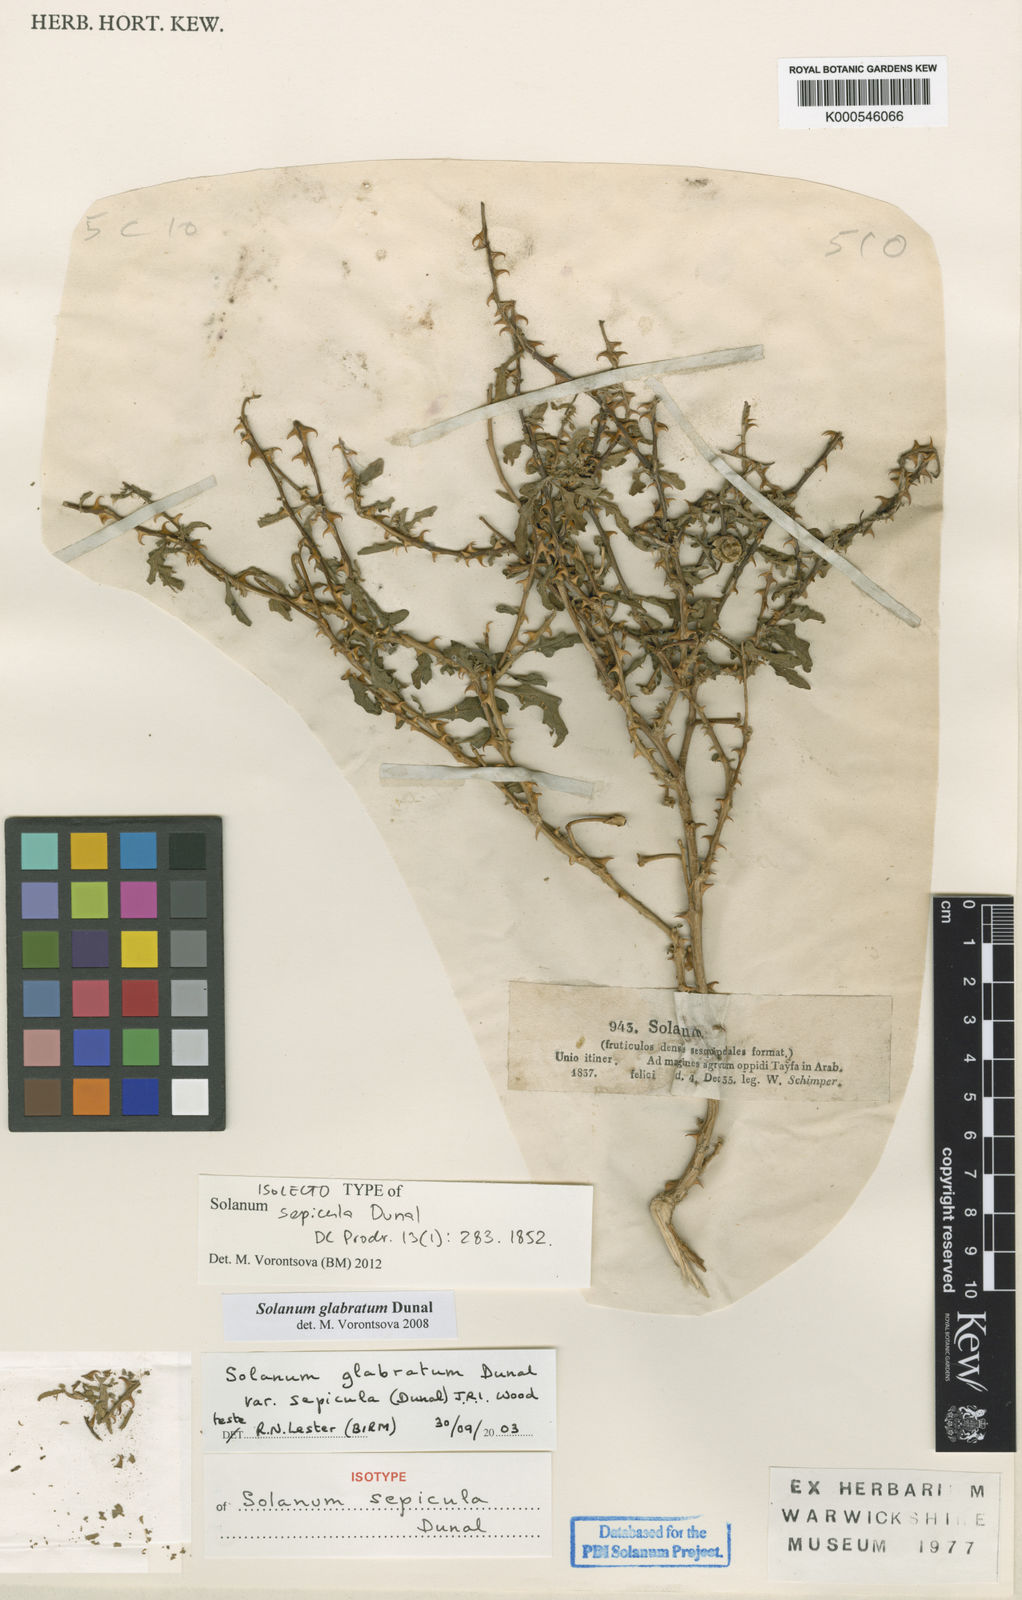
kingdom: Plantae
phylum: Tracheophyta
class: Magnoliopsida
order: Solanales
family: Solanaceae
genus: Solanum
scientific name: Solanum glabratum
